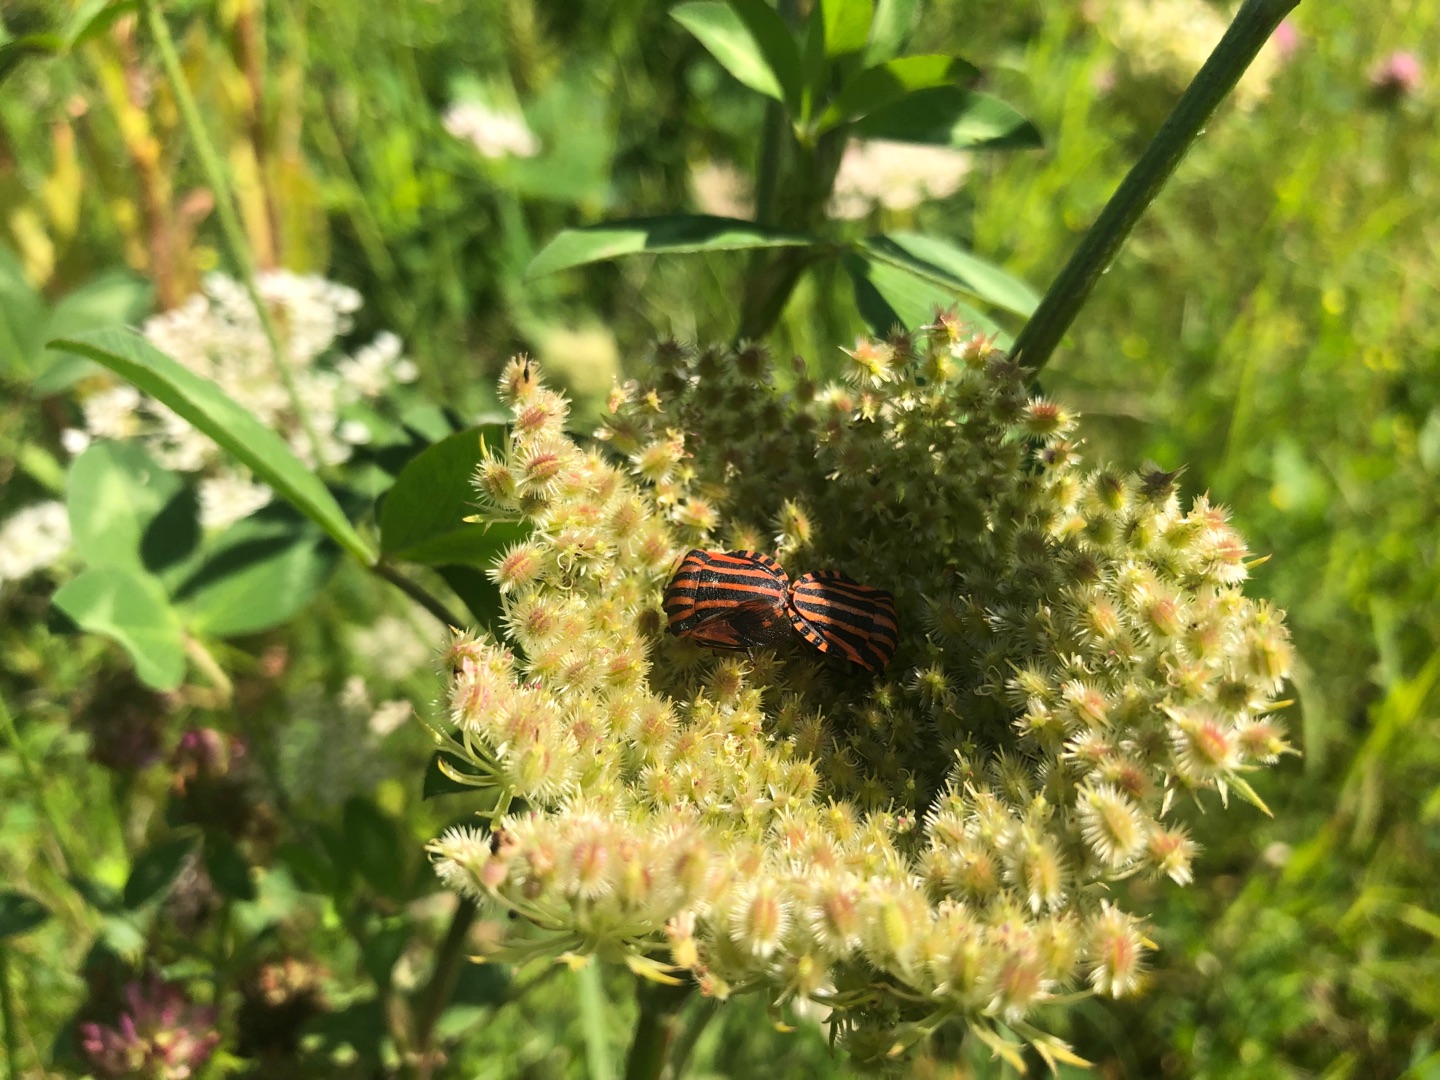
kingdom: Animalia
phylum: Arthropoda
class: Insecta
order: Hemiptera
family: Pentatomidae
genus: Graphosoma
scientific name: Graphosoma italicum
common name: Stribetæge
